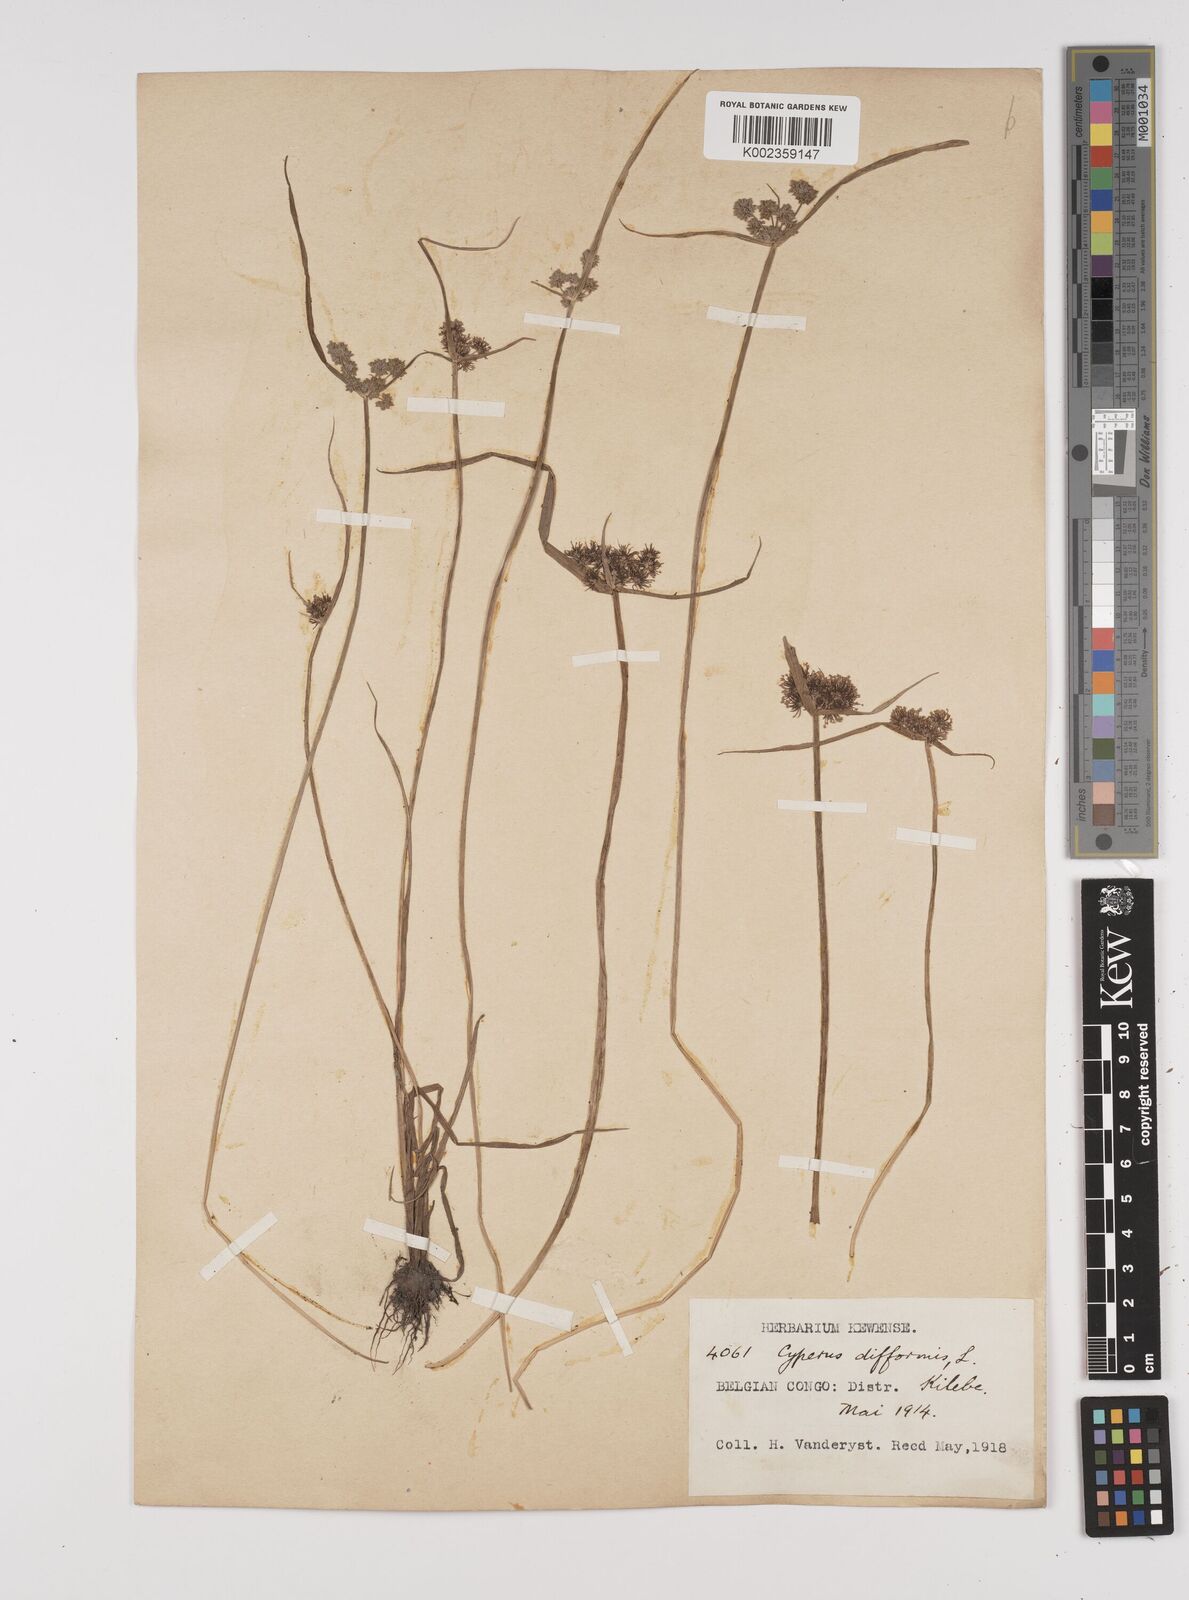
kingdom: Plantae
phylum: Tracheophyta
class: Liliopsida
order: Poales
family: Cyperaceae
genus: Cyperus
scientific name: Cyperus difformis
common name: Variable flatsedge
